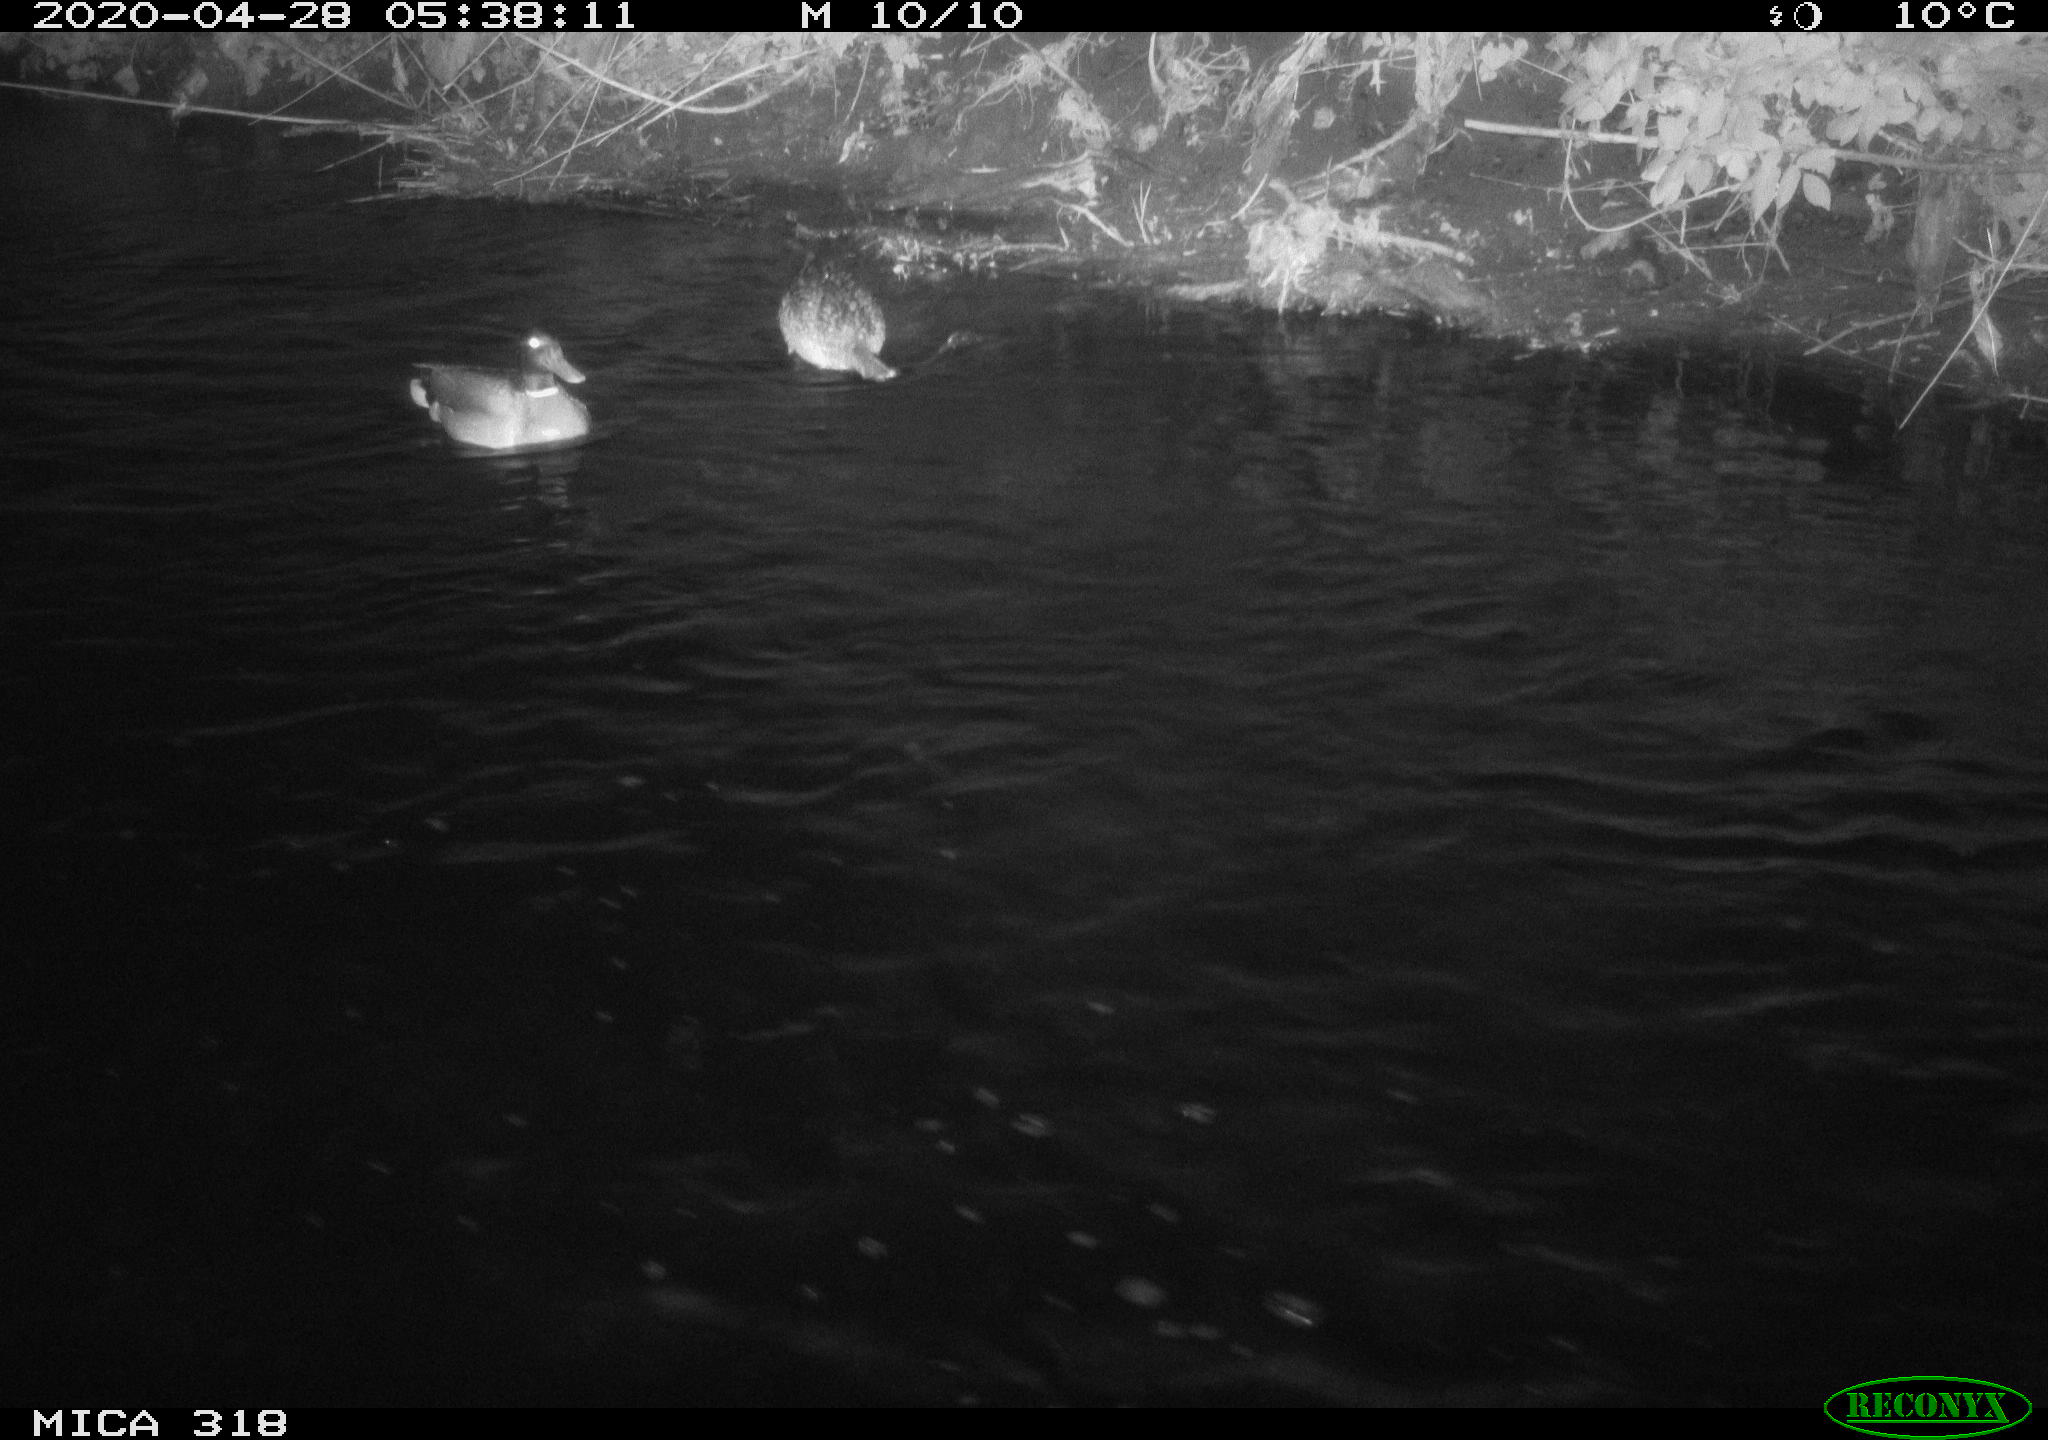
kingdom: Animalia
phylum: Chordata
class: Aves
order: Anseriformes
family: Anatidae
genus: Anas
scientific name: Anas platyrhynchos
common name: Mallard
